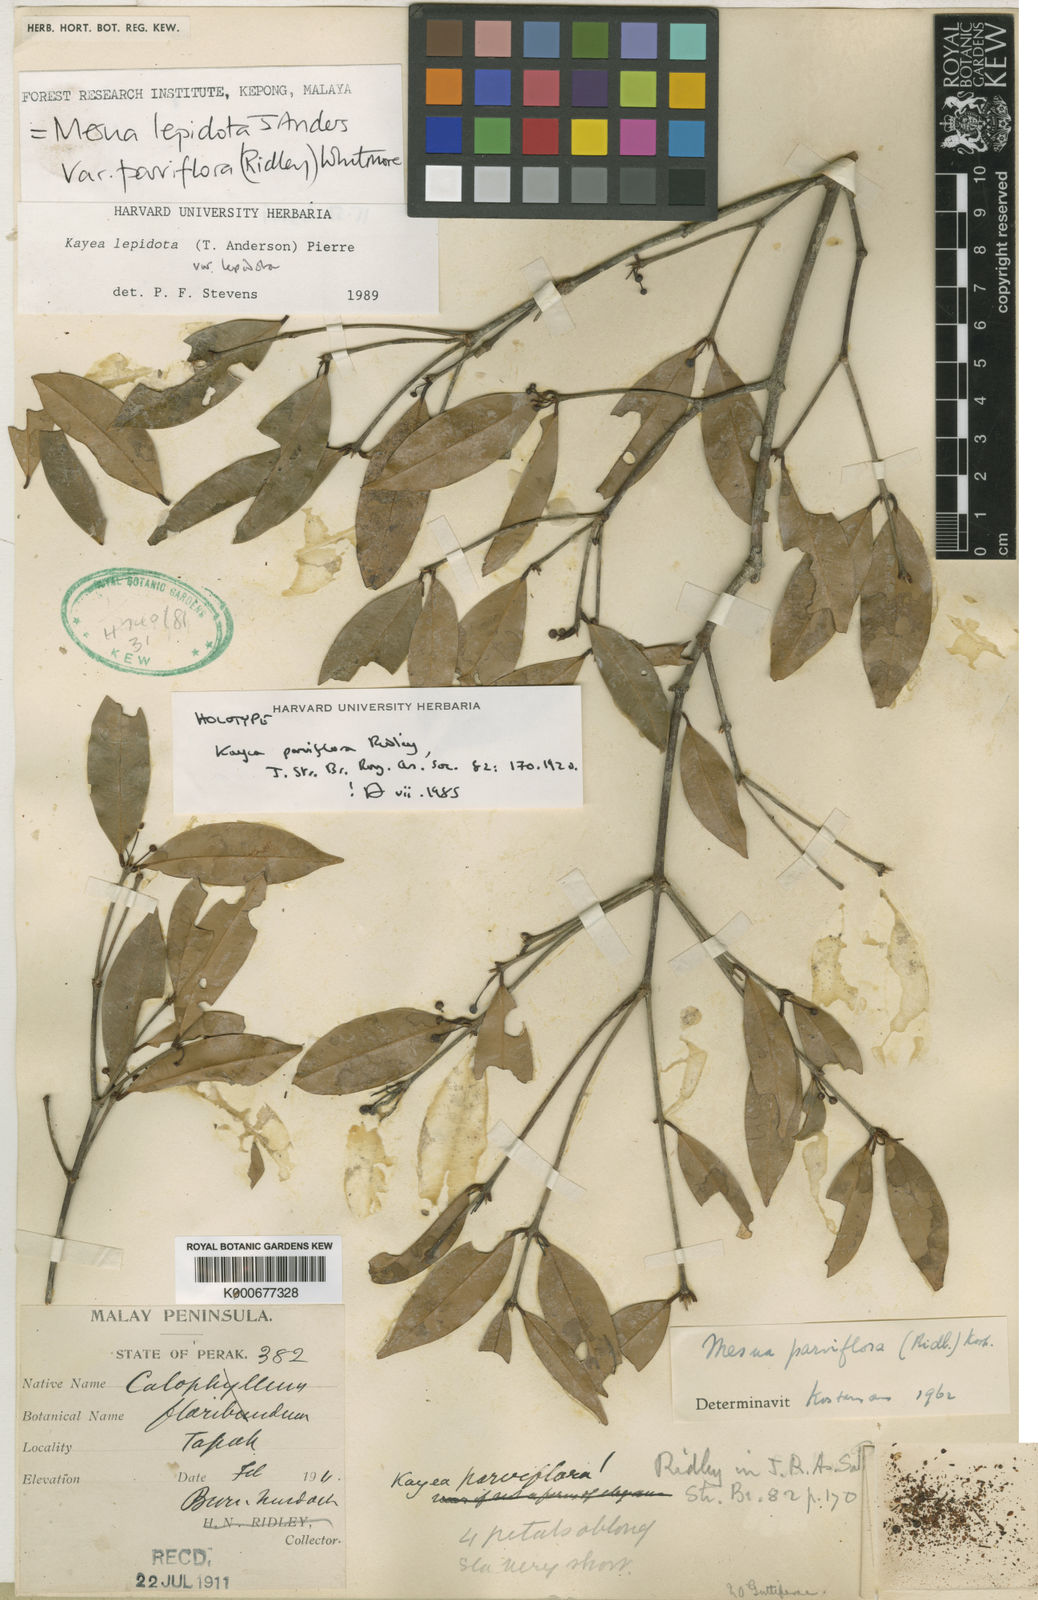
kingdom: Plantae
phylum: Tracheophyta
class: Magnoliopsida
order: Malpighiales
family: Calophyllaceae
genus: Kayea
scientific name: Kayea lepidota
